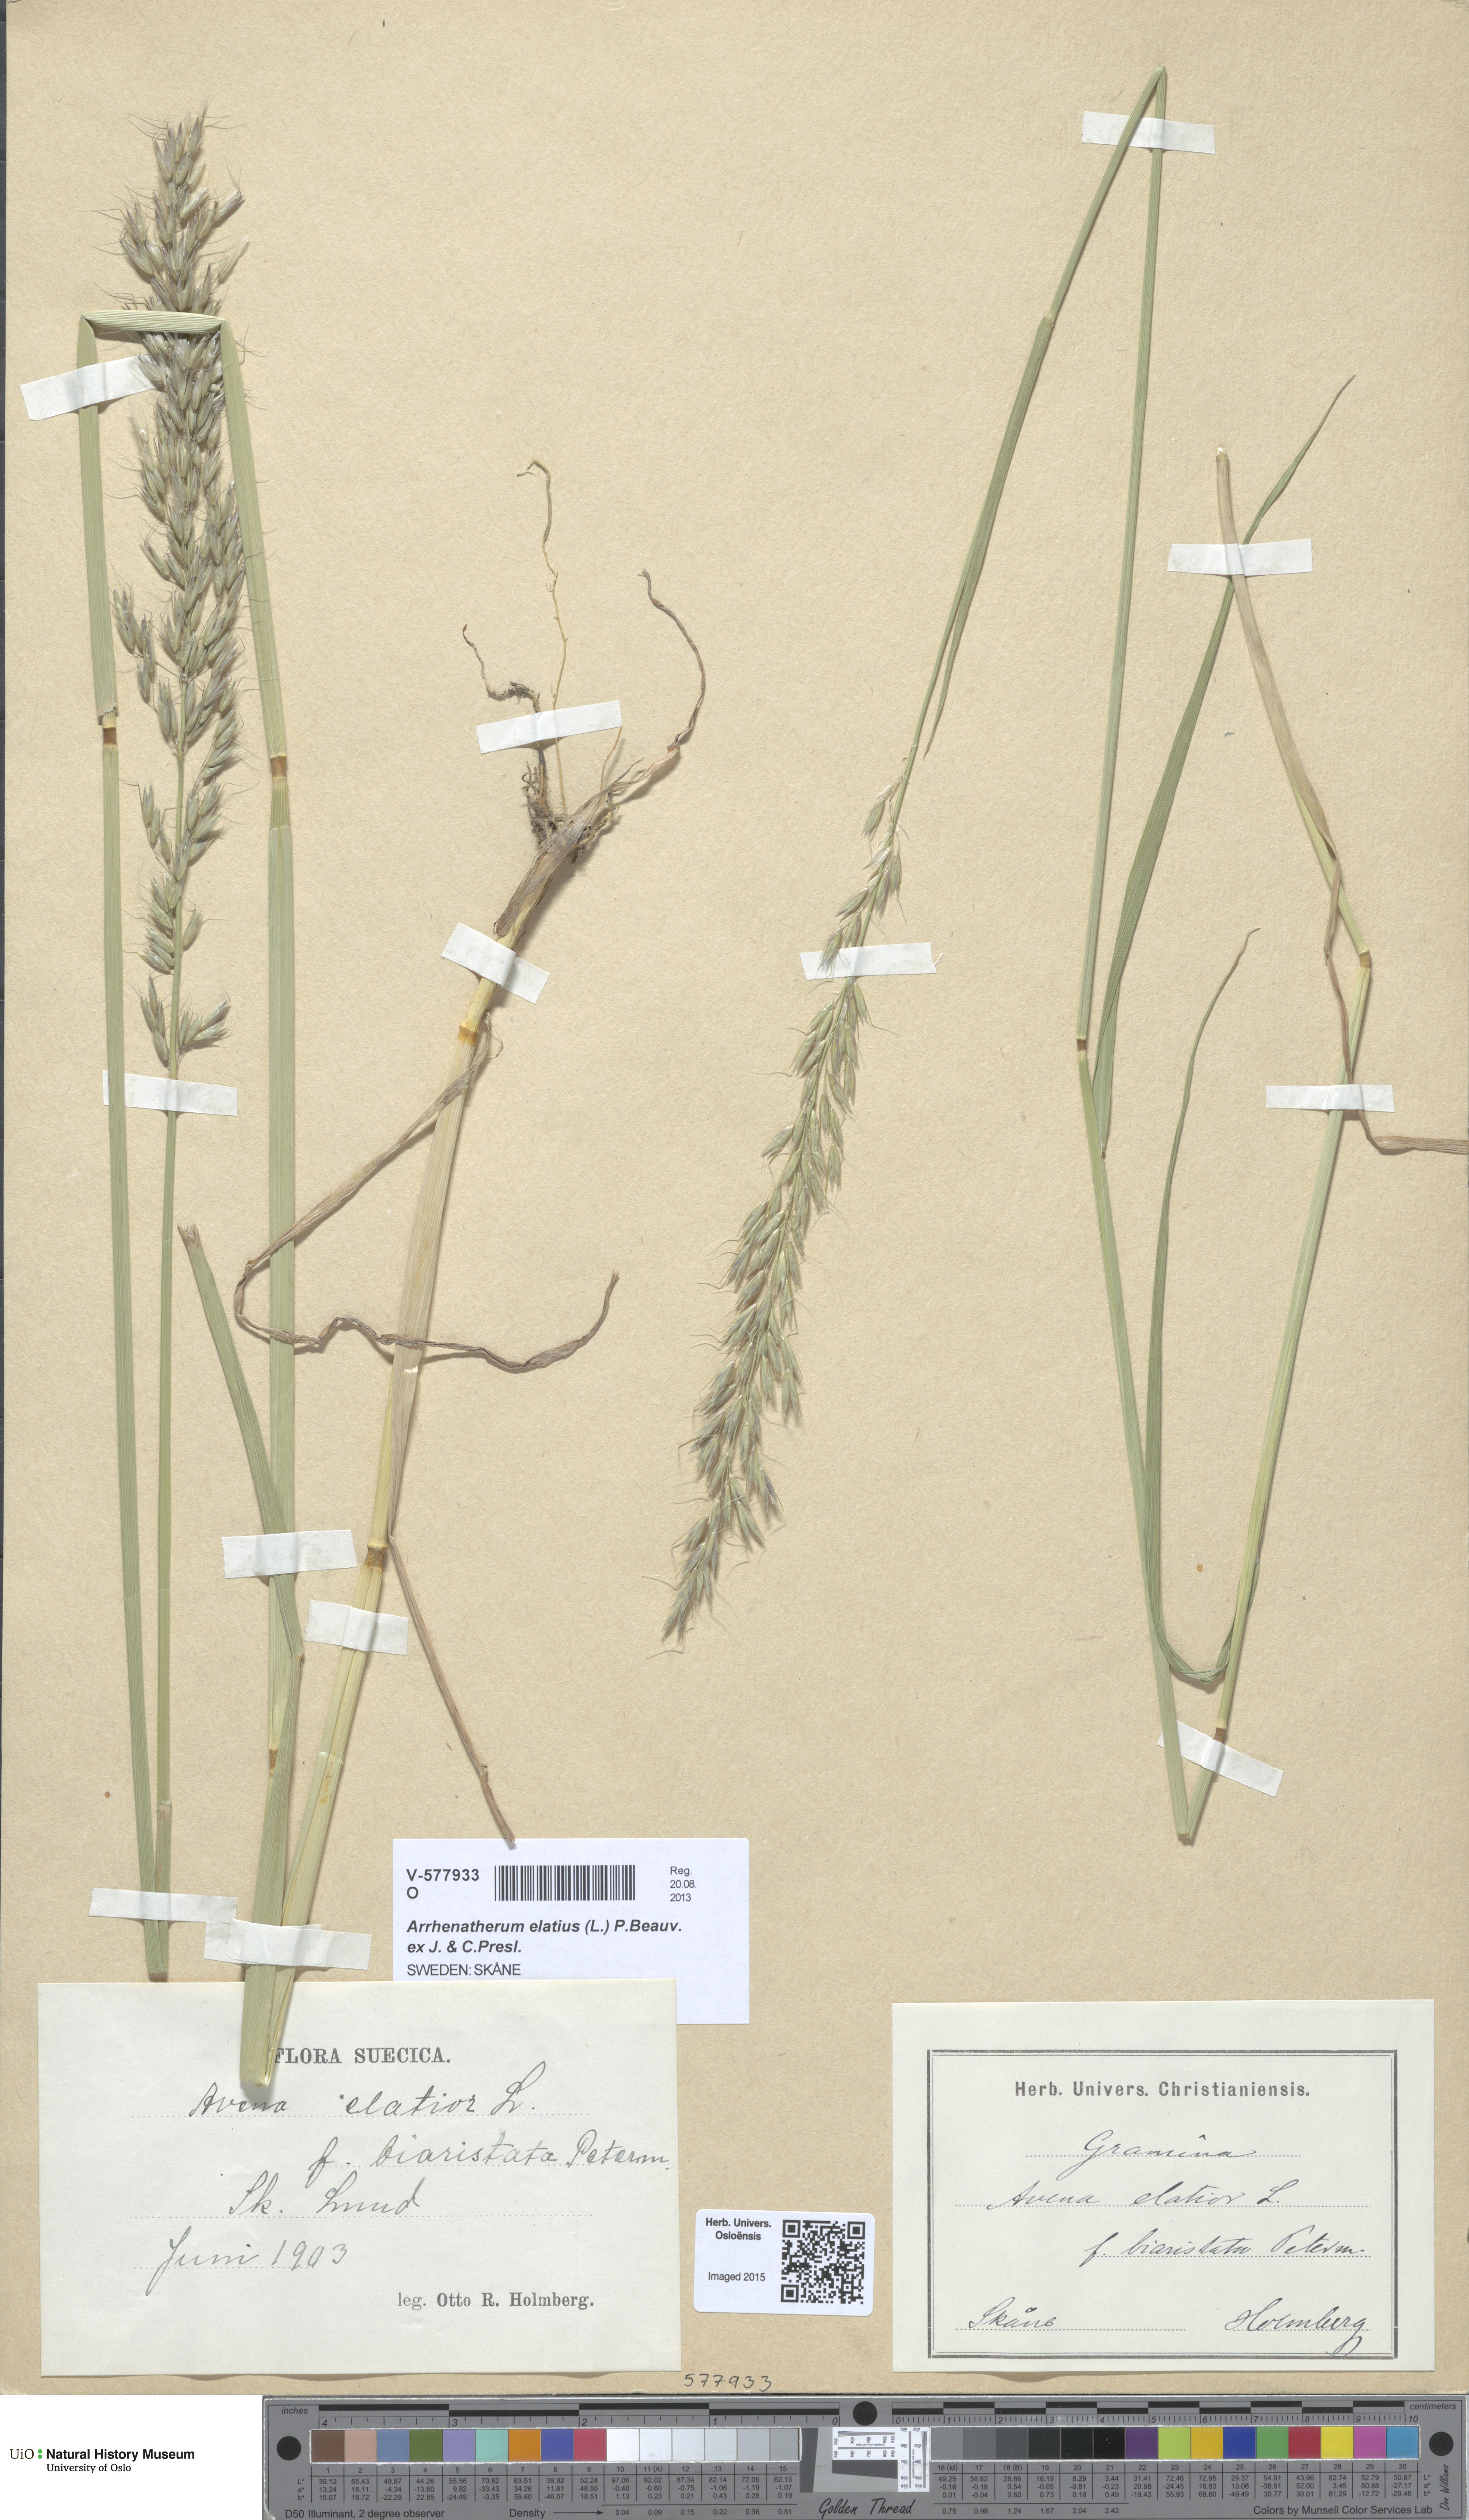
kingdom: Plantae
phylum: Tracheophyta
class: Liliopsida
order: Poales
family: Poaceae
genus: Arrhenatherum
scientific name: Arrhenatherum elatius
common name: Tall oatgrass
